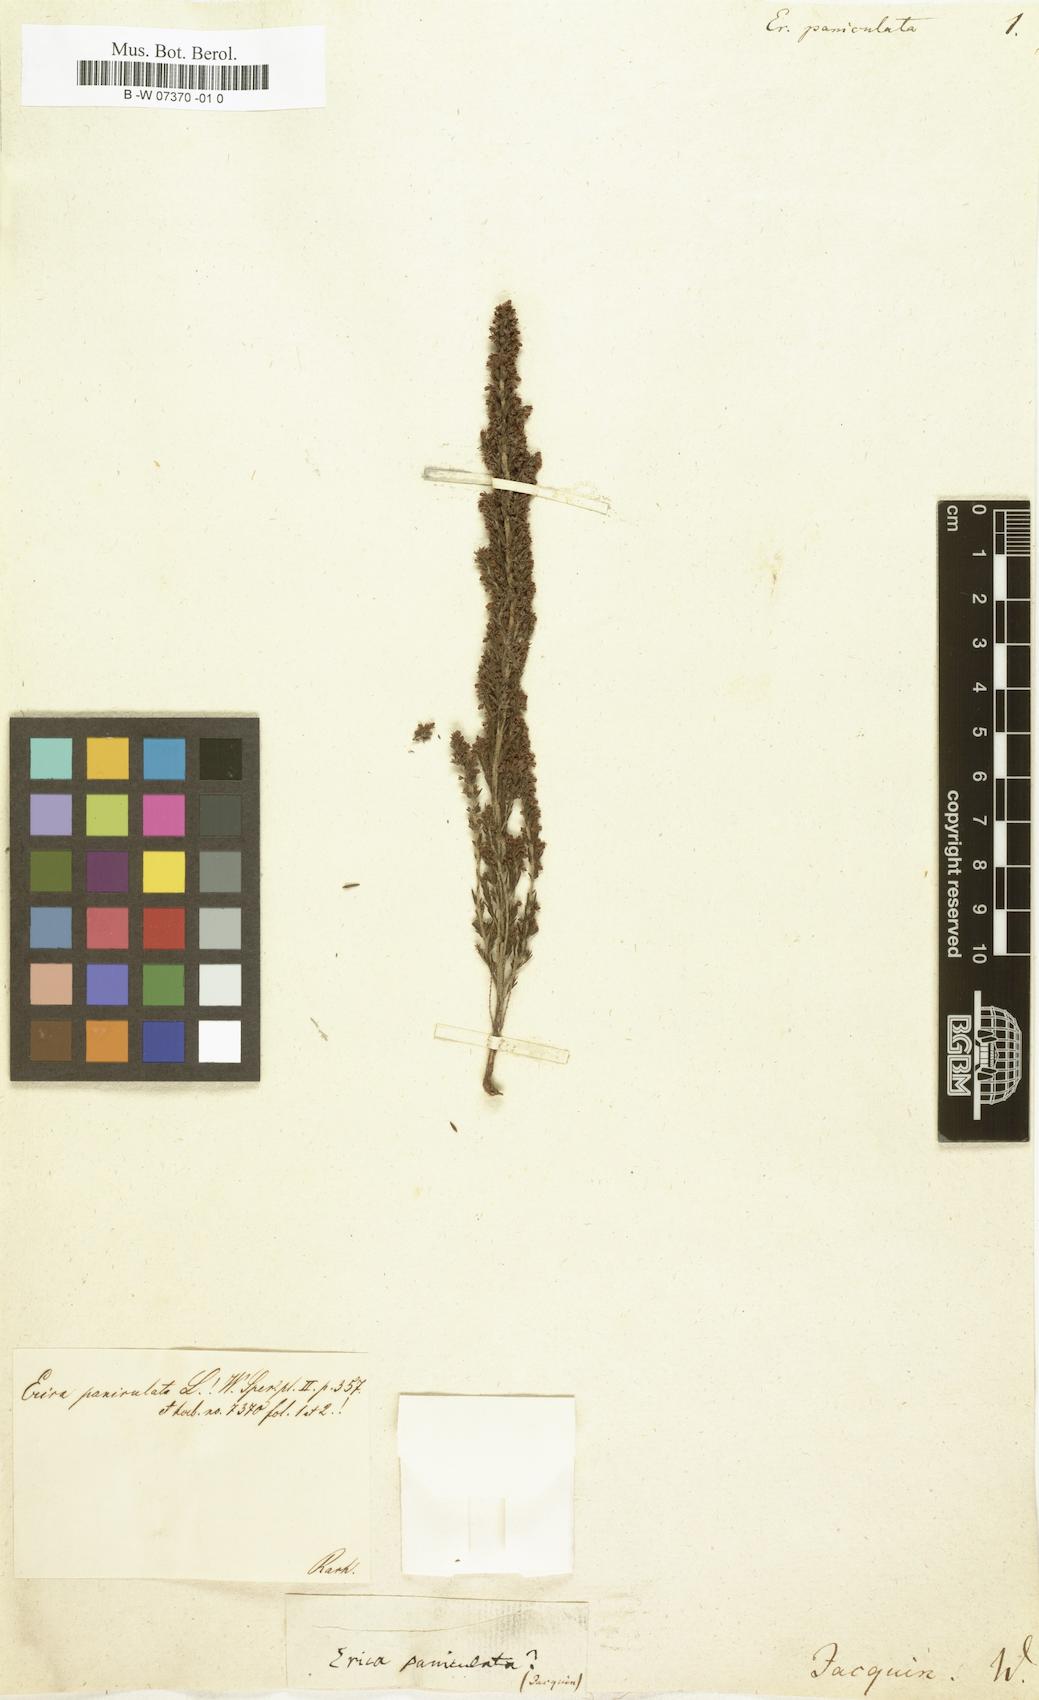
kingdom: Plantae
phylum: Tracheophyta
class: Magnoliopsida
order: Ericales
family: Ericaceae
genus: Erica
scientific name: Erica paniculata
